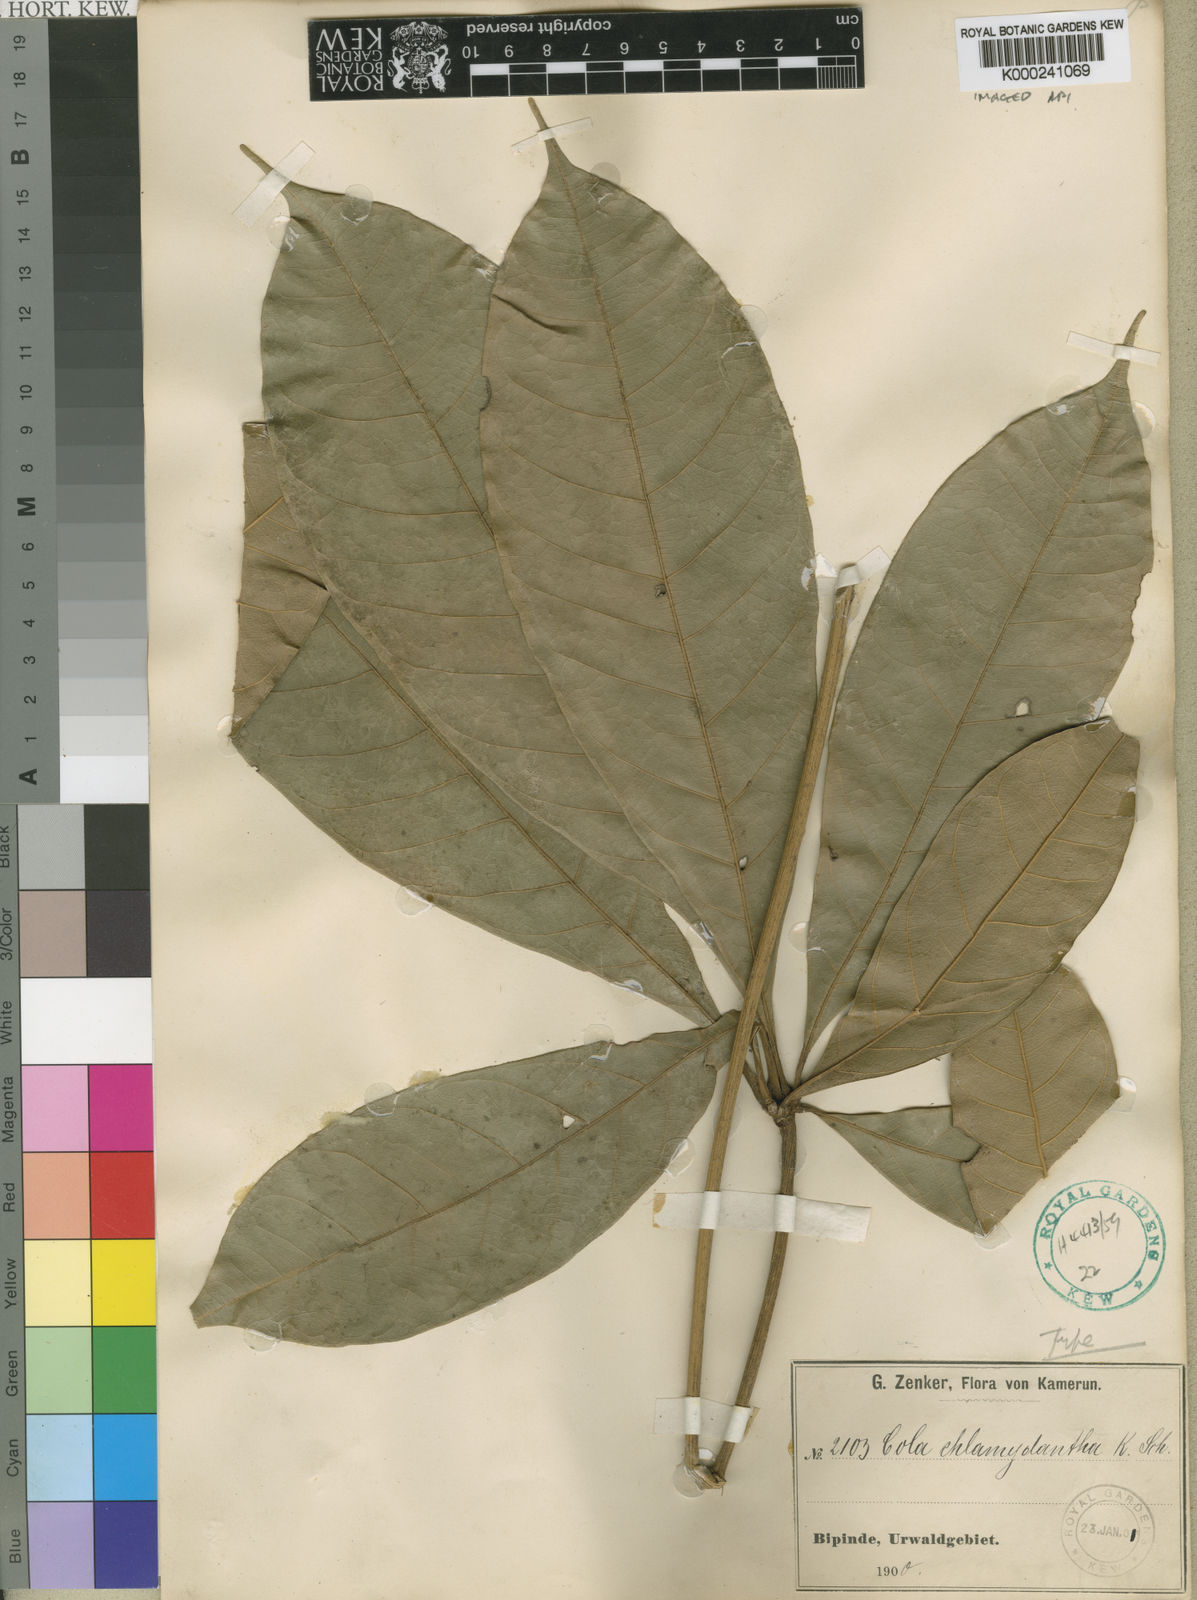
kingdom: Plantae
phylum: Tracheophyta
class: Magnoliopsida
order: Malvales
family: Malvaceae
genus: Cola
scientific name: Cola chlamydantha
